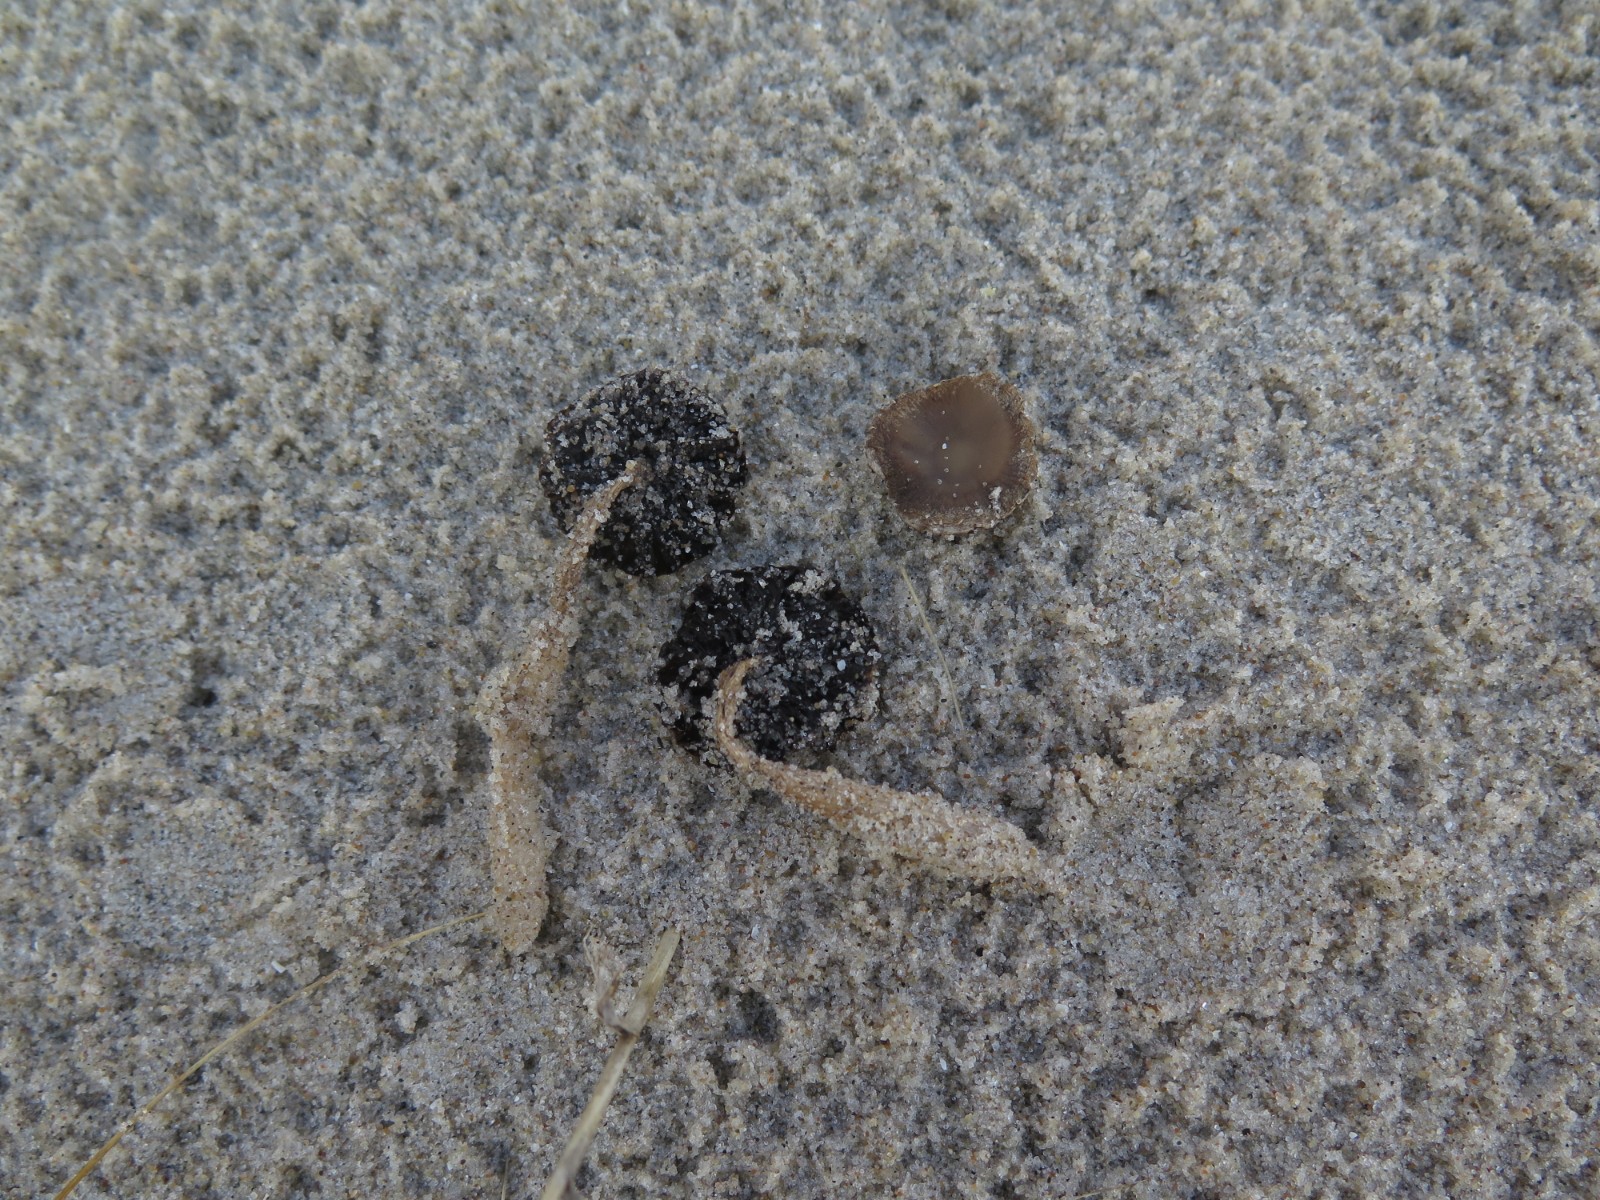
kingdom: Fungi
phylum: Basidiomycota
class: Agaricomycetes
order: Agaricales
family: Psathyrellaceae
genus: Psathyrella
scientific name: Psathyrella ammophila
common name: klit-mørkhat
